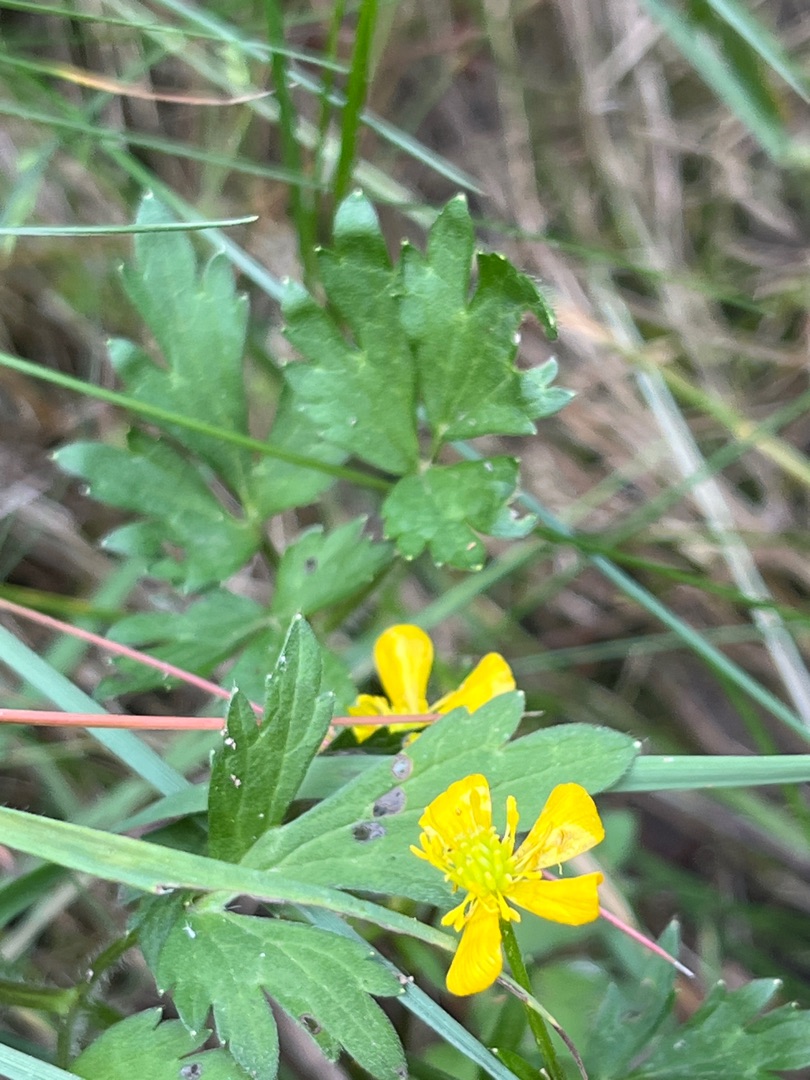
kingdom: Plantae
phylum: Tracheophyta
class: Magnoliopsida
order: Ranunculales
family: Ranunculaceae
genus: Ranunculus
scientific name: Ranunculus repens
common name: Lav ranunkel
